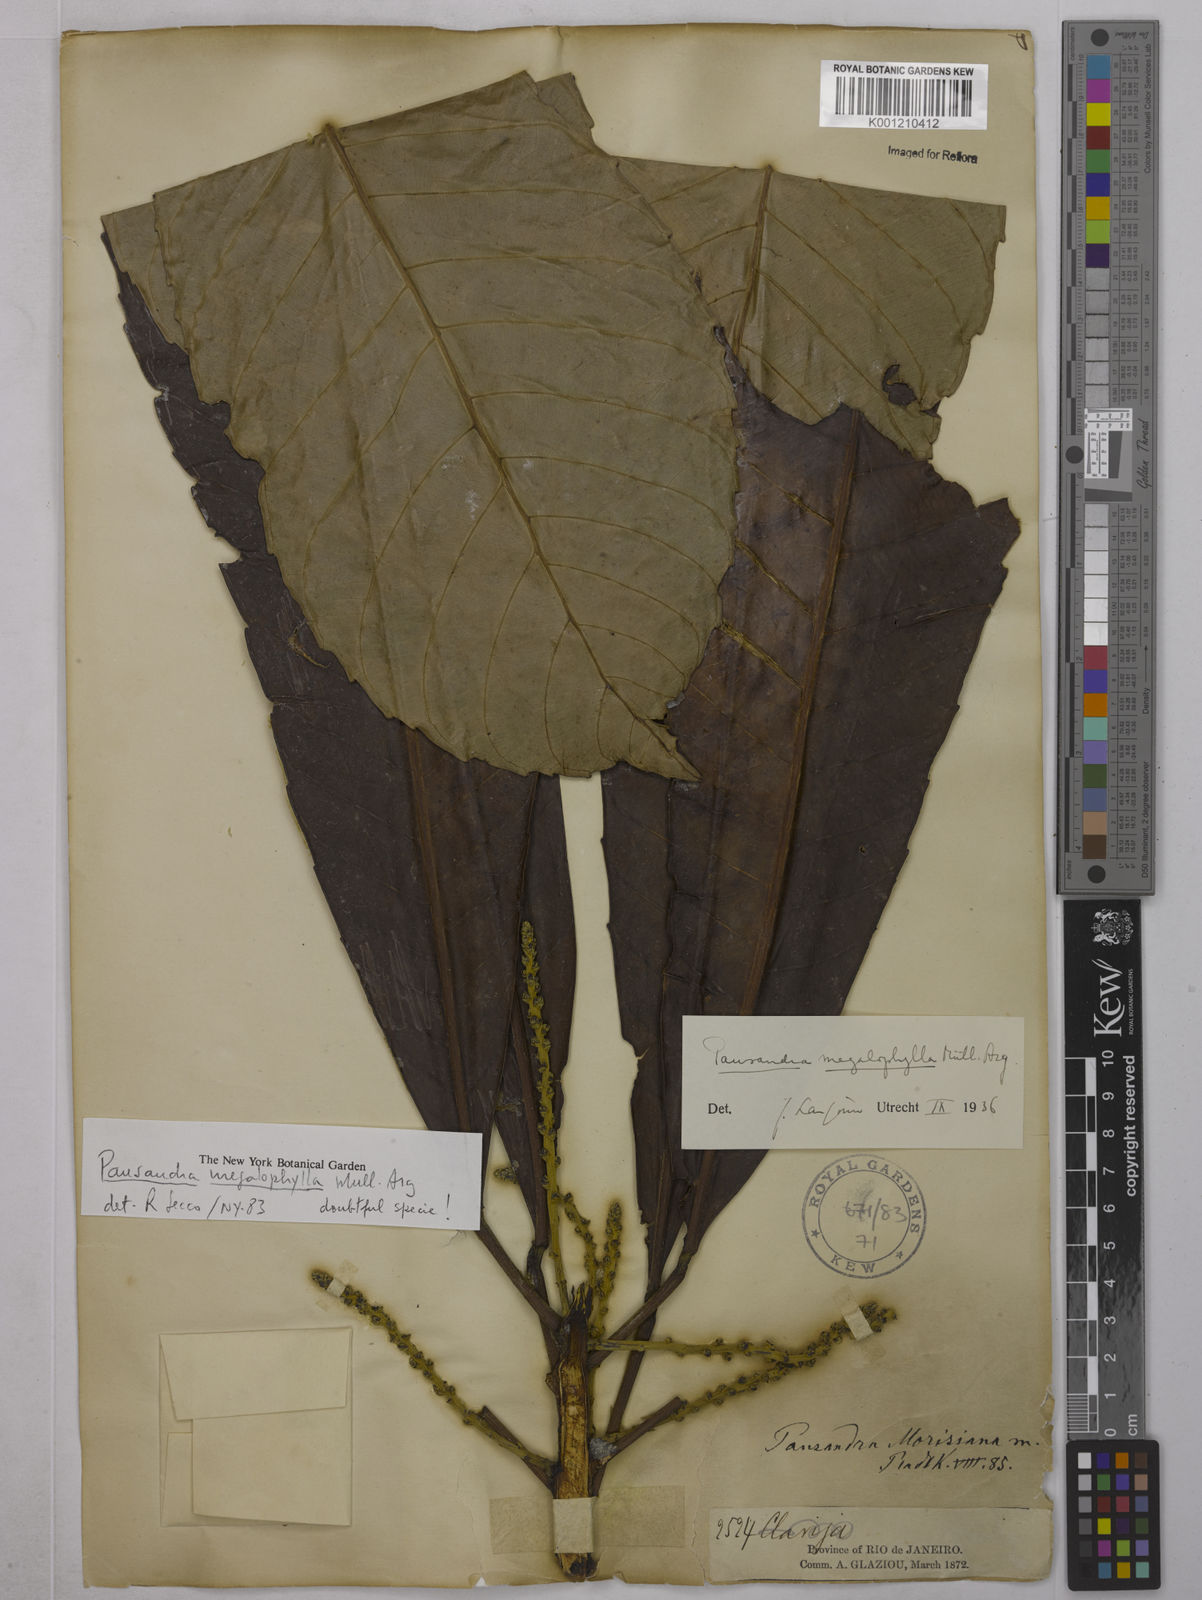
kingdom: Plantae
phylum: Tracheophyta
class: Magnoliopsida
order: Malpighiales
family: Euphorbiaceae
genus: Pausandra
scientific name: Pausandra
